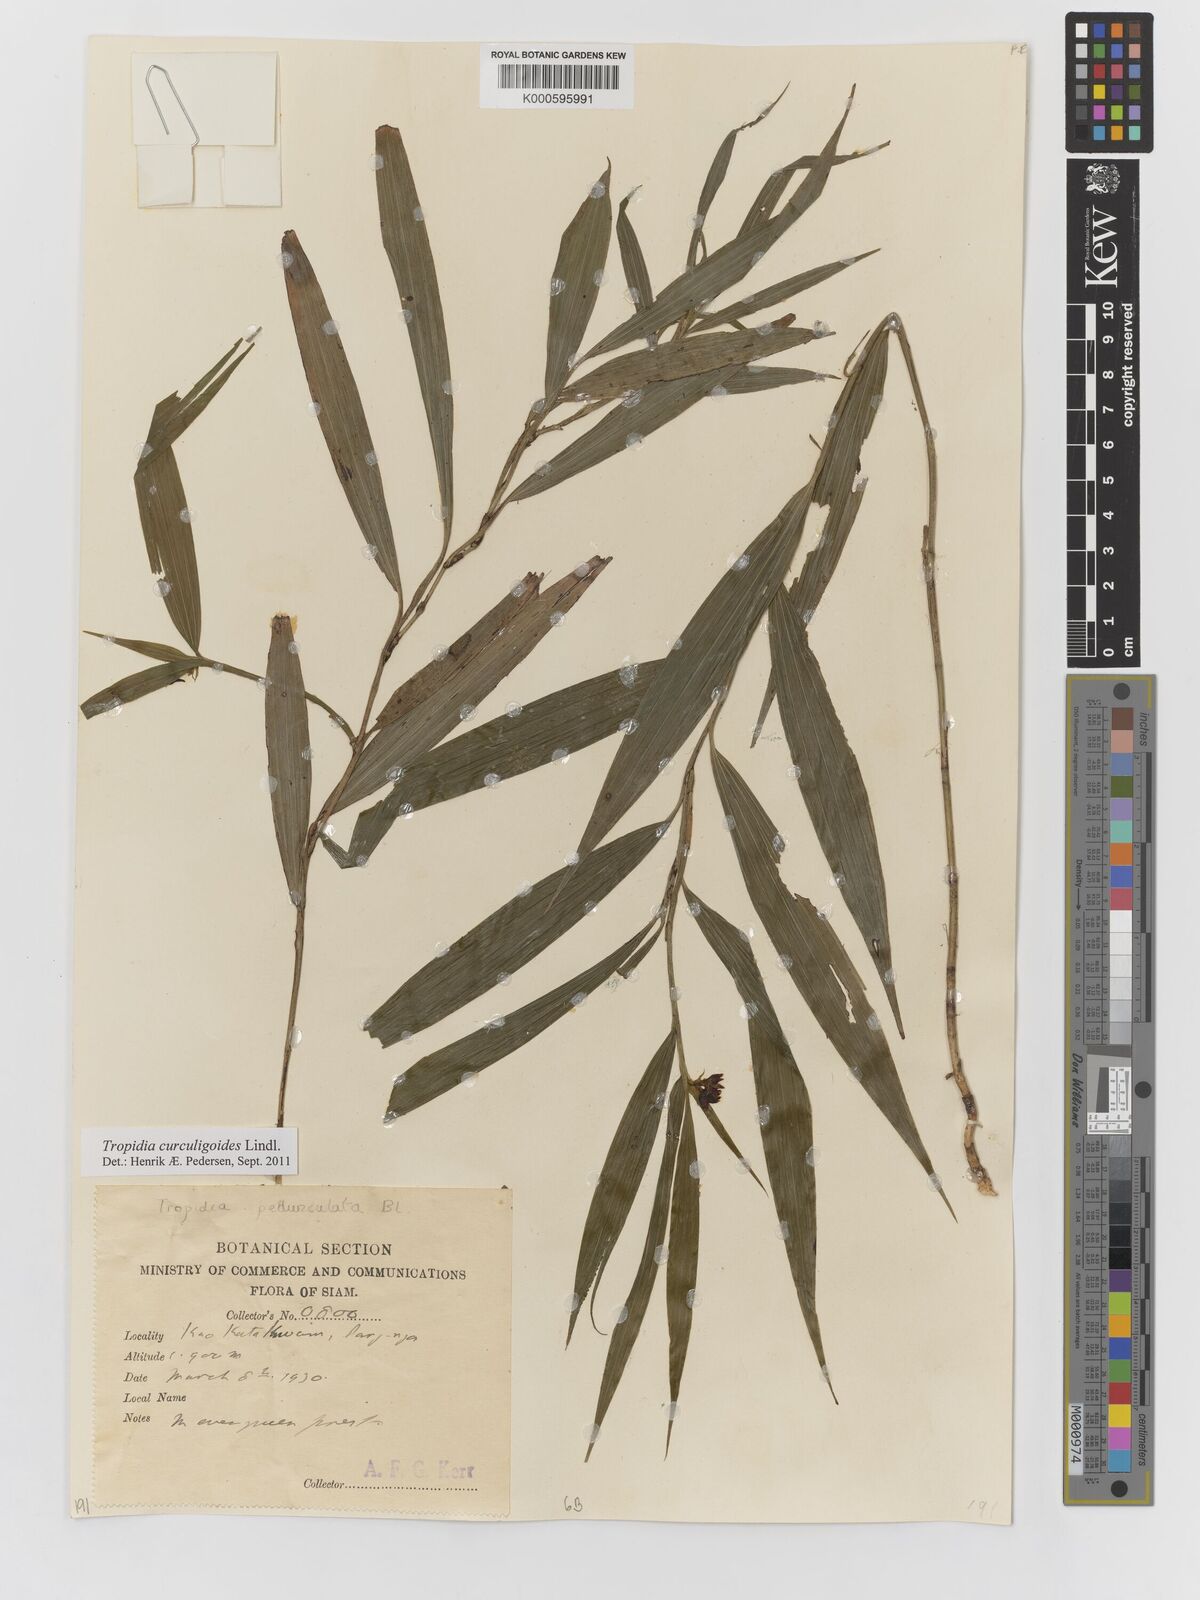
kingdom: Plantae
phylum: Tracheophyta
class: Liliopsida
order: Asparagales
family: Orchidaceae
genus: Tropidia
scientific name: Tropidia curculigoides
